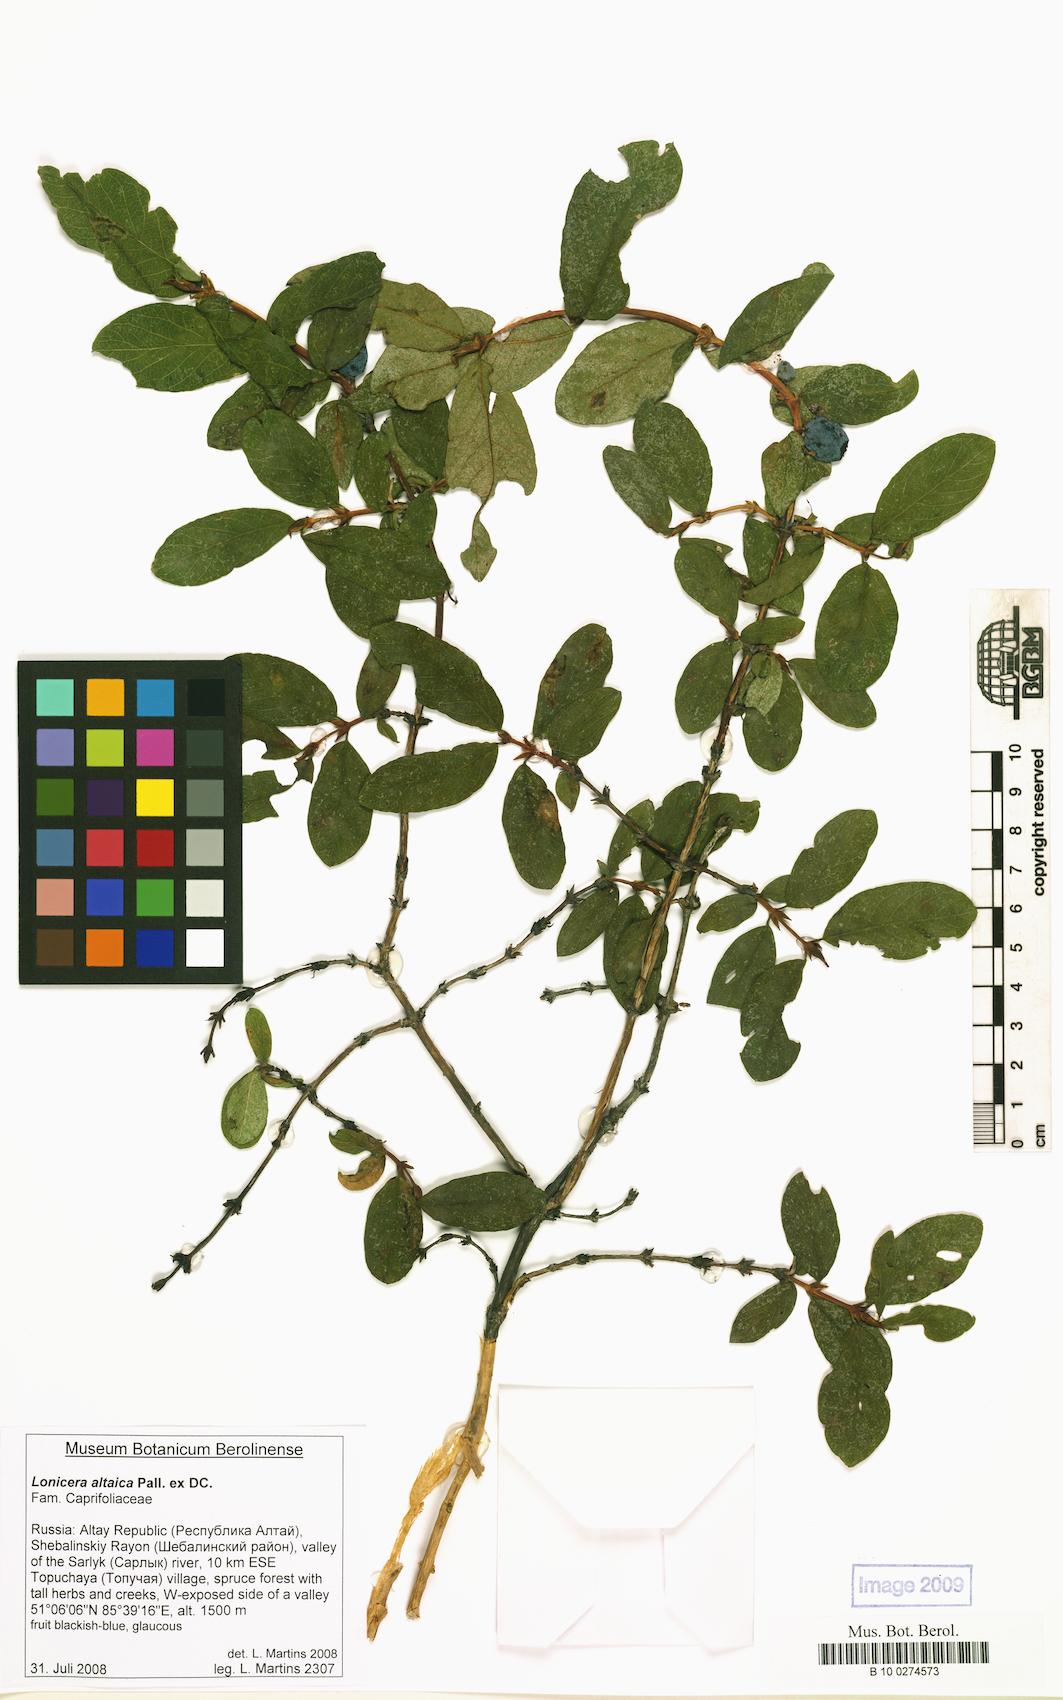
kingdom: Plantae
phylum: Tracheophyta
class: Magnoliopsida
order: Dipsacales
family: Caprifoliaceae
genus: Lonicera
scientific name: Lonicera caerulea
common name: Blue honeysuckle
